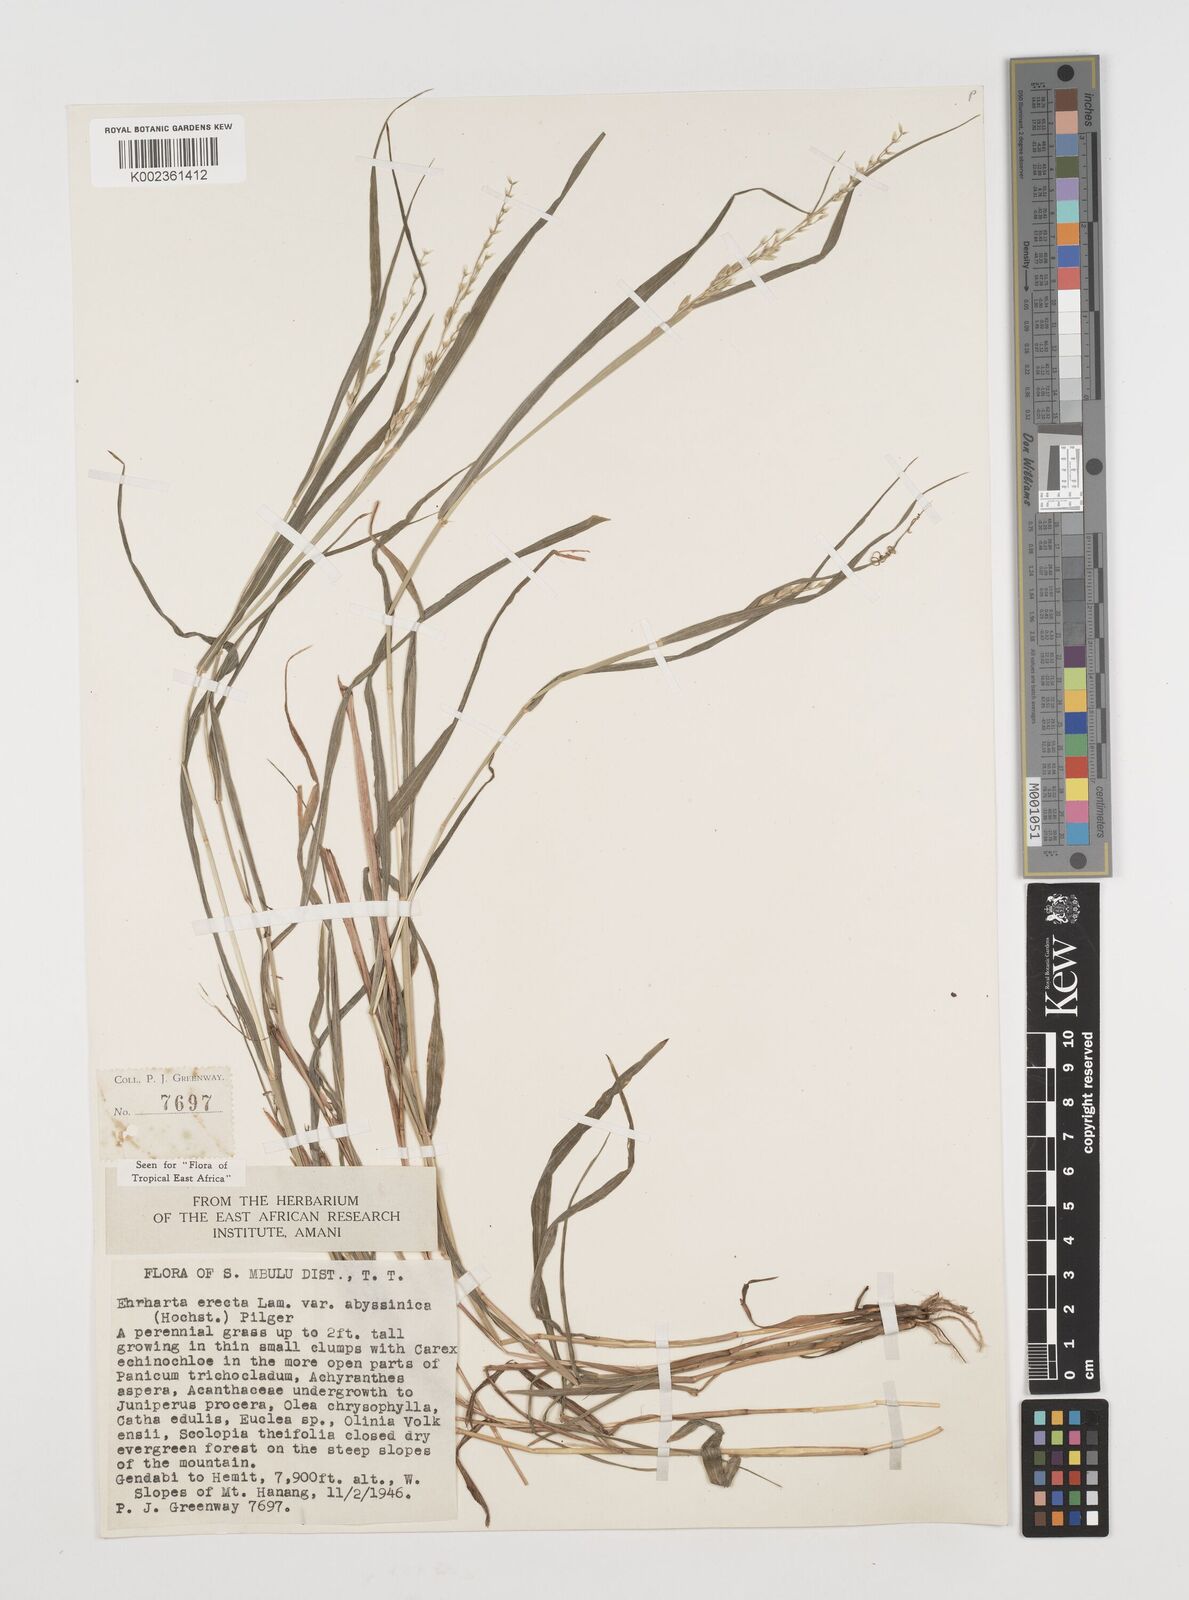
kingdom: Plantae
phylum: Tracheophyta
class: Liliopsida
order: Poales
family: Poaceae
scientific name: Poaceae
